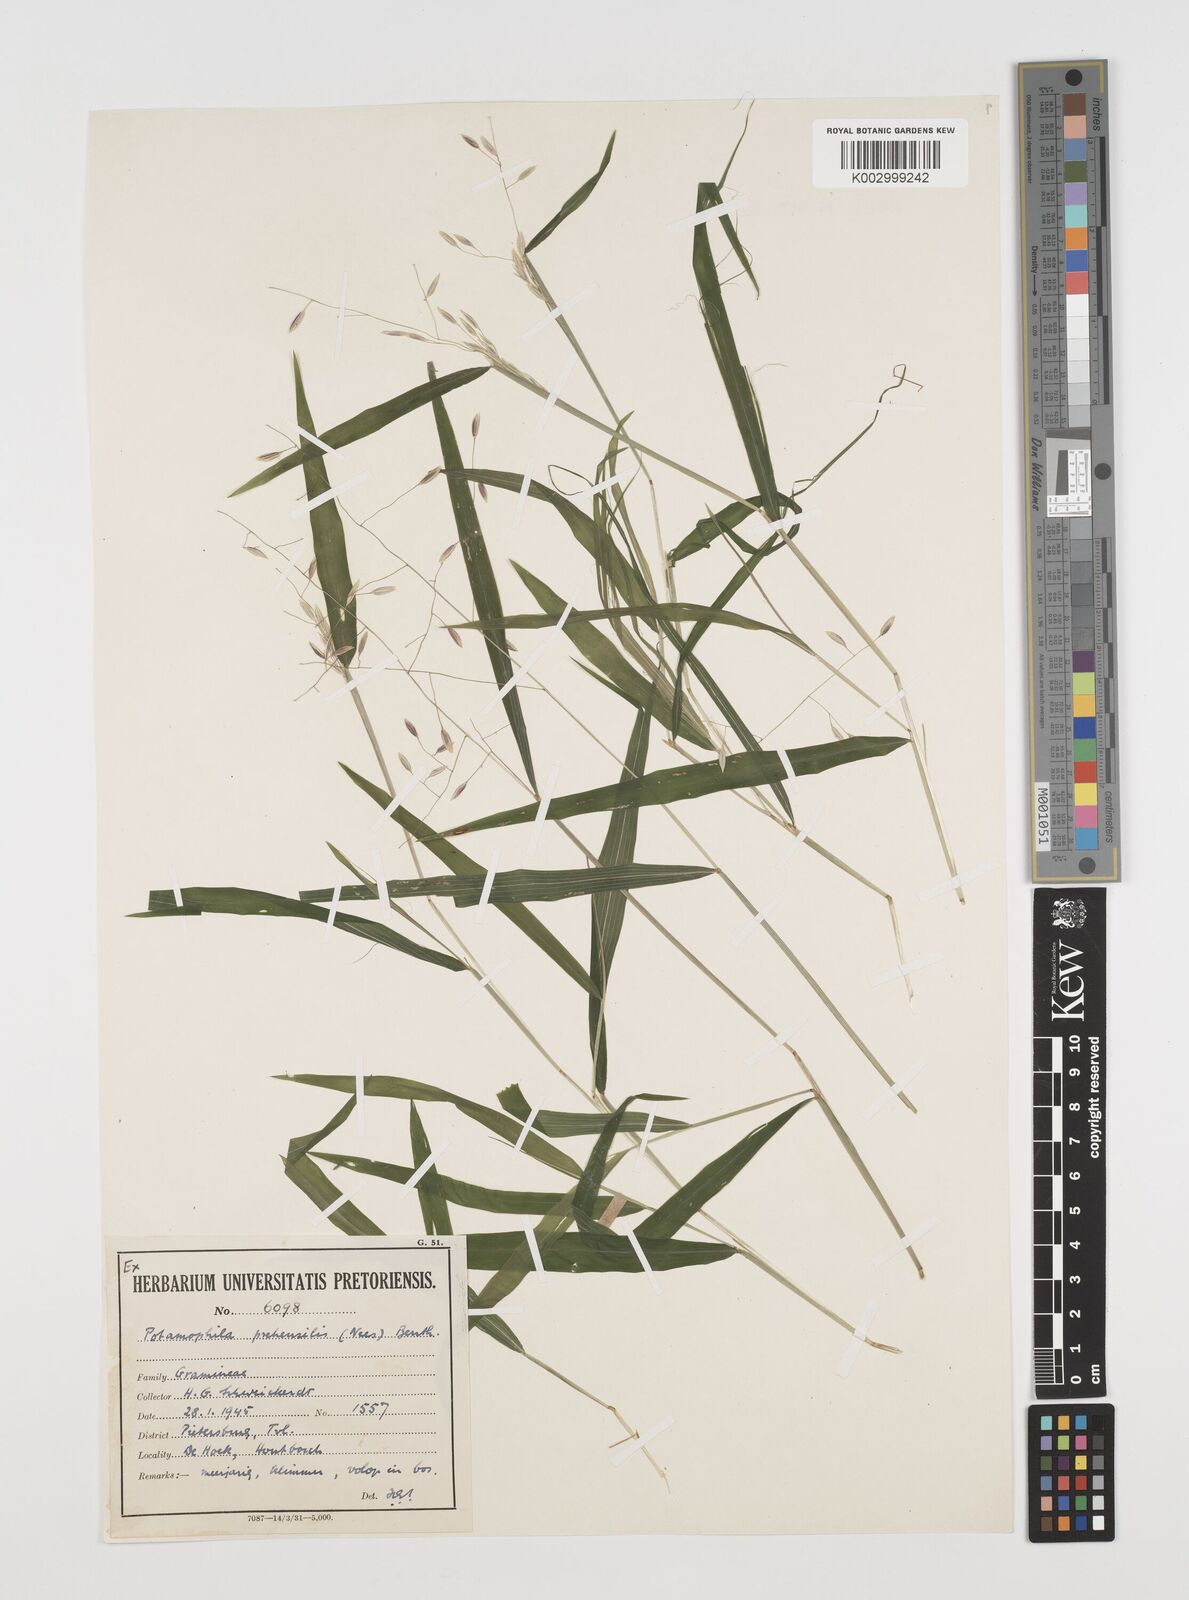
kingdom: Plantae
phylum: Tracheophyta
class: Liliopsida
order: Poales
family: Poaceae
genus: Prosphytochloa
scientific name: Prosphytochloa prehensilis
